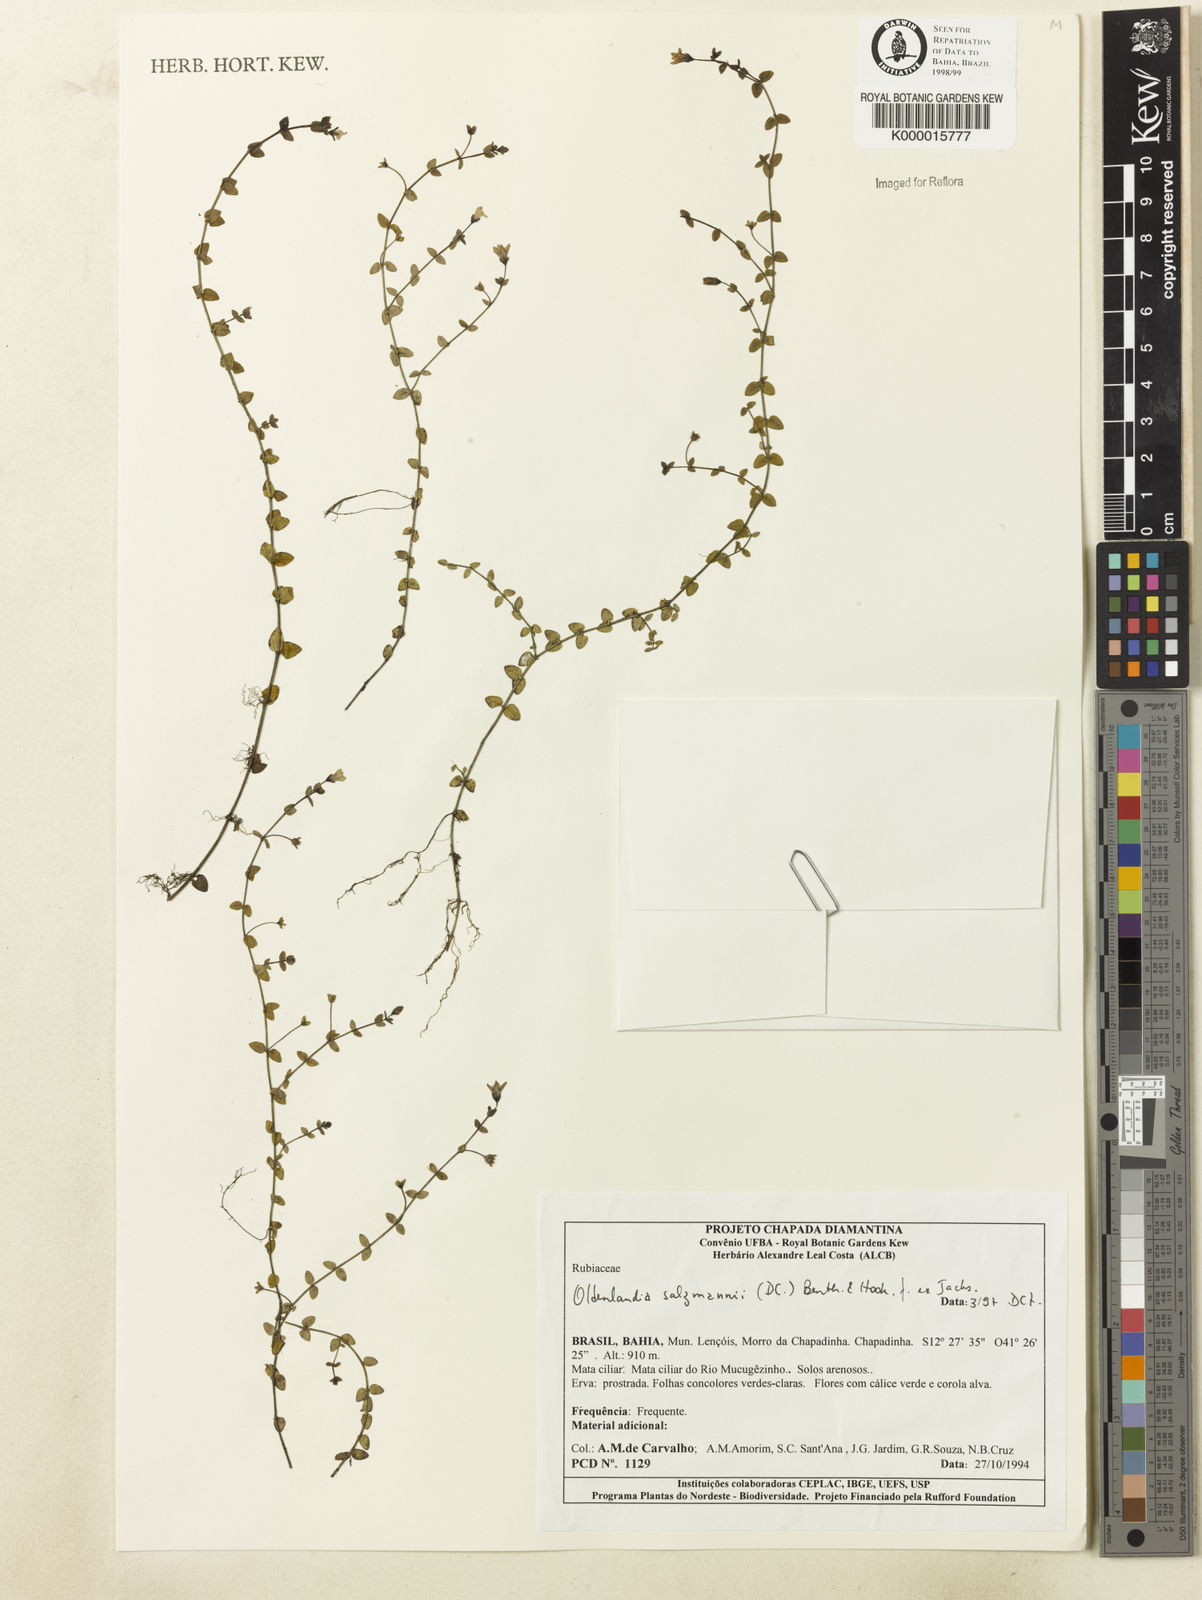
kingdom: Plantae
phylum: Tracheophyta
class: Magnoliopsida
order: Gentianales
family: Rubiaceae
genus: Oldenlandia
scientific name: Oldenlandia salzmannii
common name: Salzmann's mille graines
